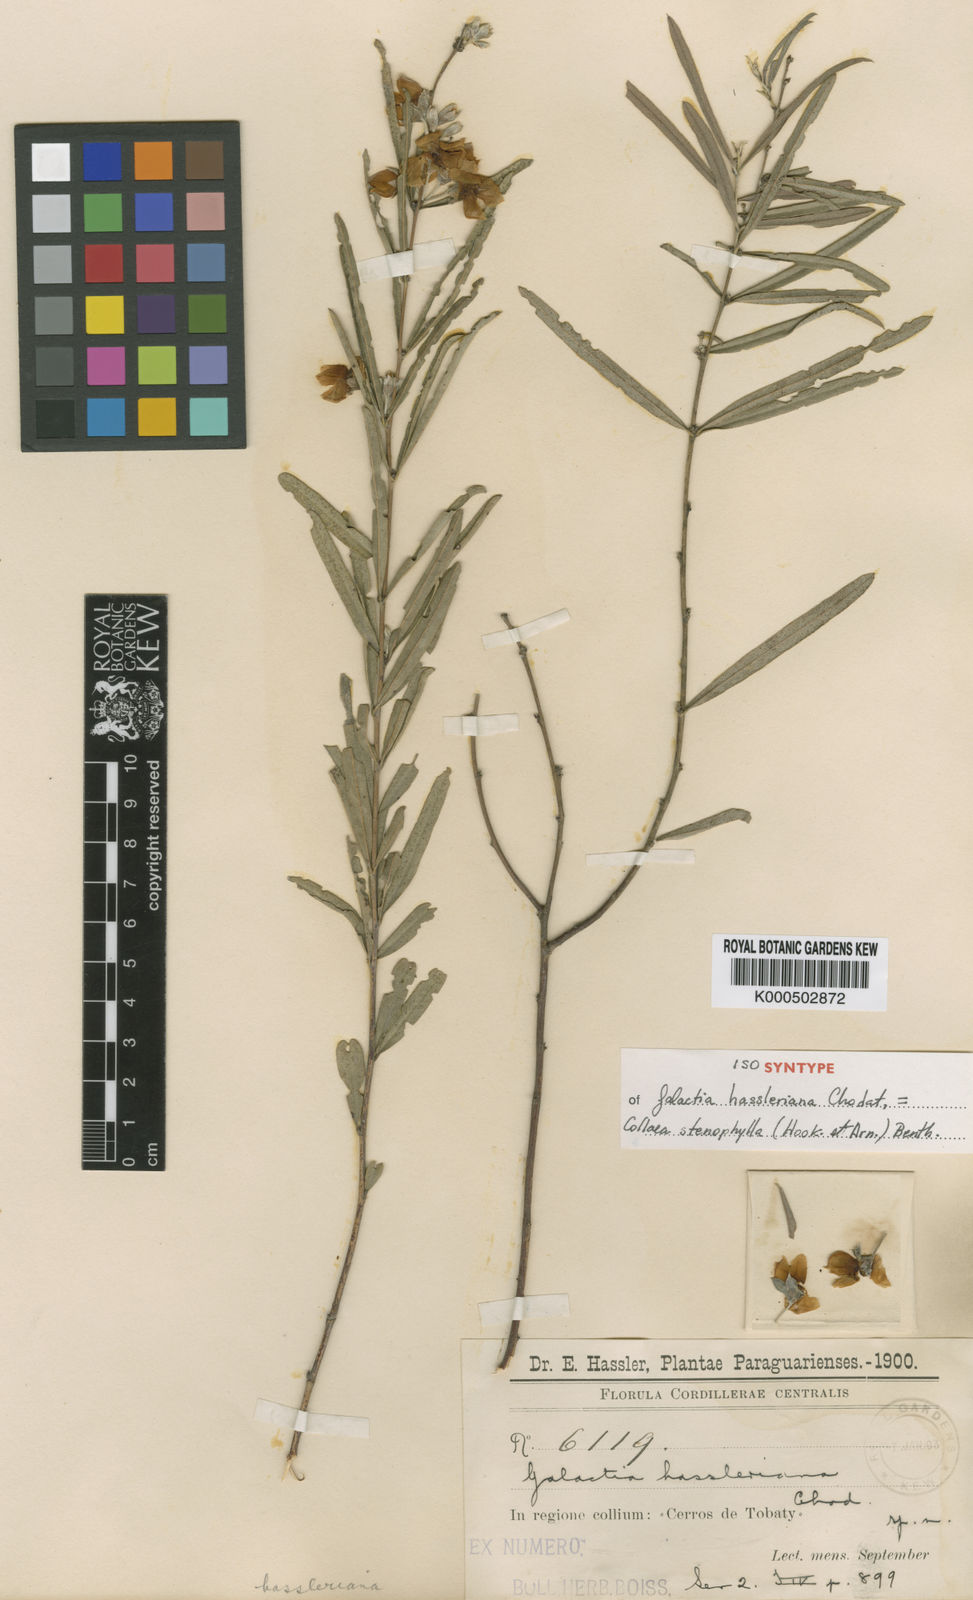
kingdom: Plantae
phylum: Tracheophyta
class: Magnoliopsida
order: Fabales
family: Fabaceae
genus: Collaea
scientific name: Collaea stenophylla
